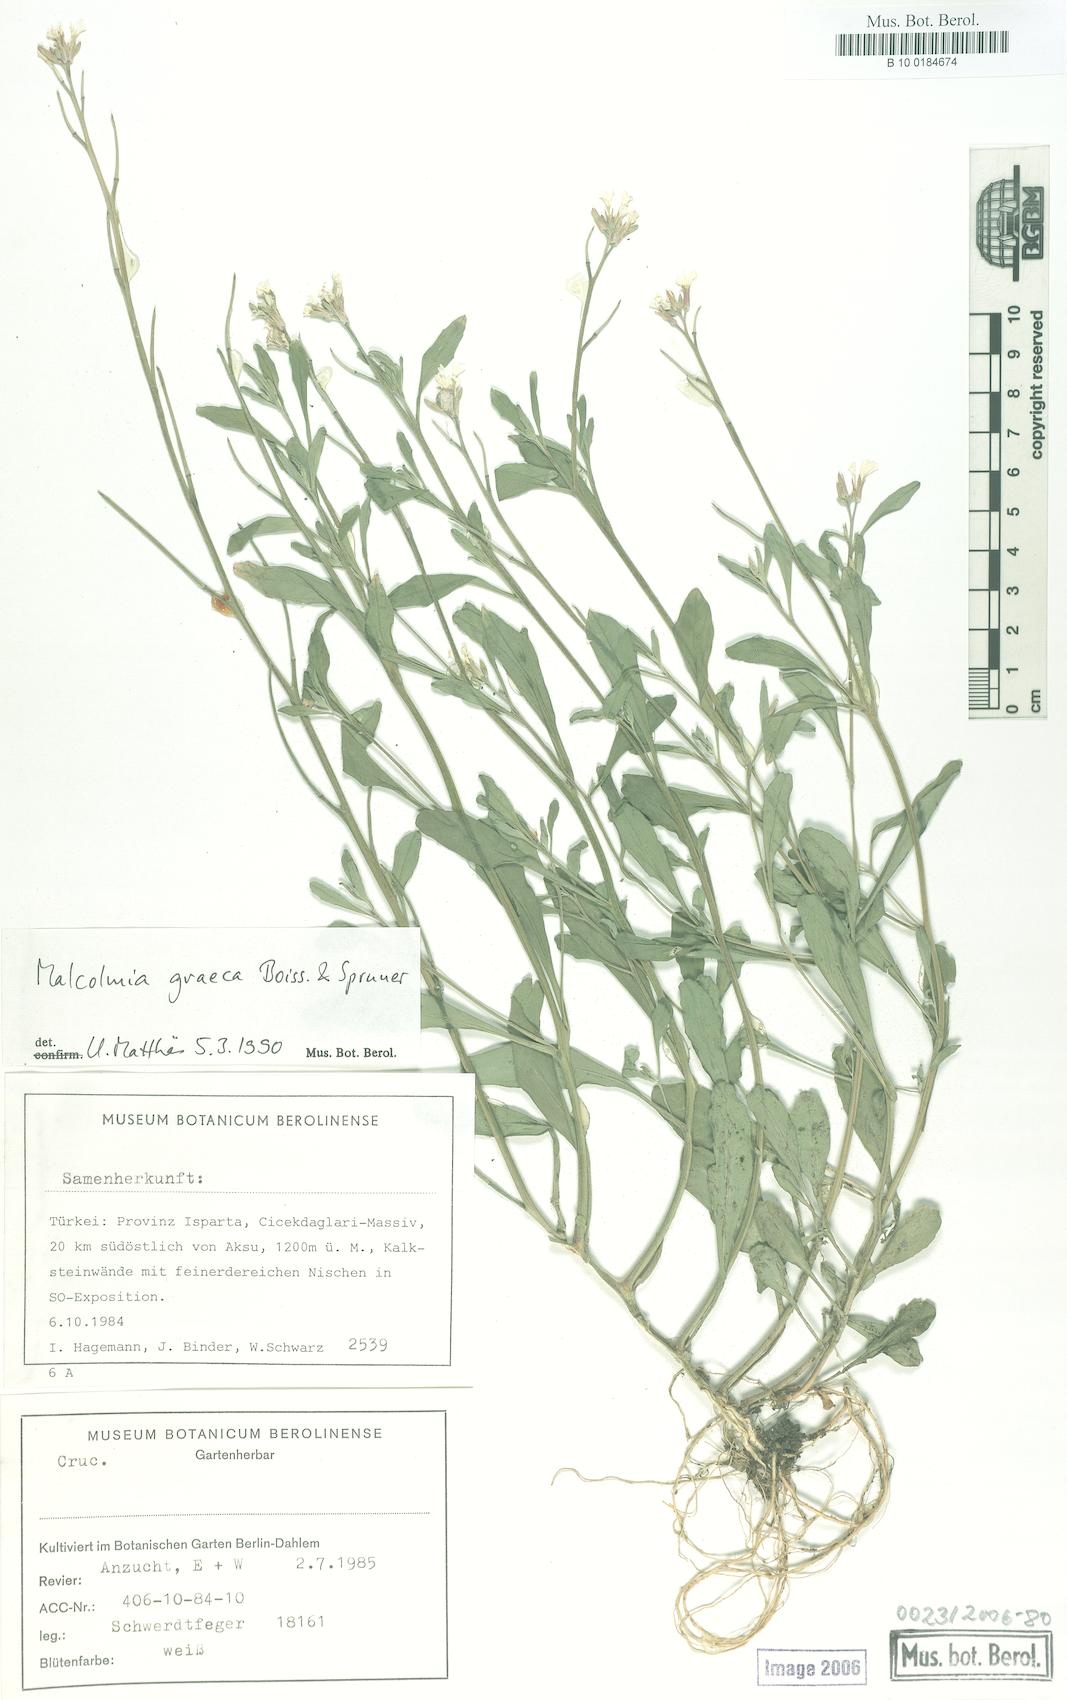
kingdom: Plantae
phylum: Tracheophyta
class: Magnoliopsida
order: Brassicales
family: Brassicaceae
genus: Malcolmia
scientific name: Malcolmia graeca
